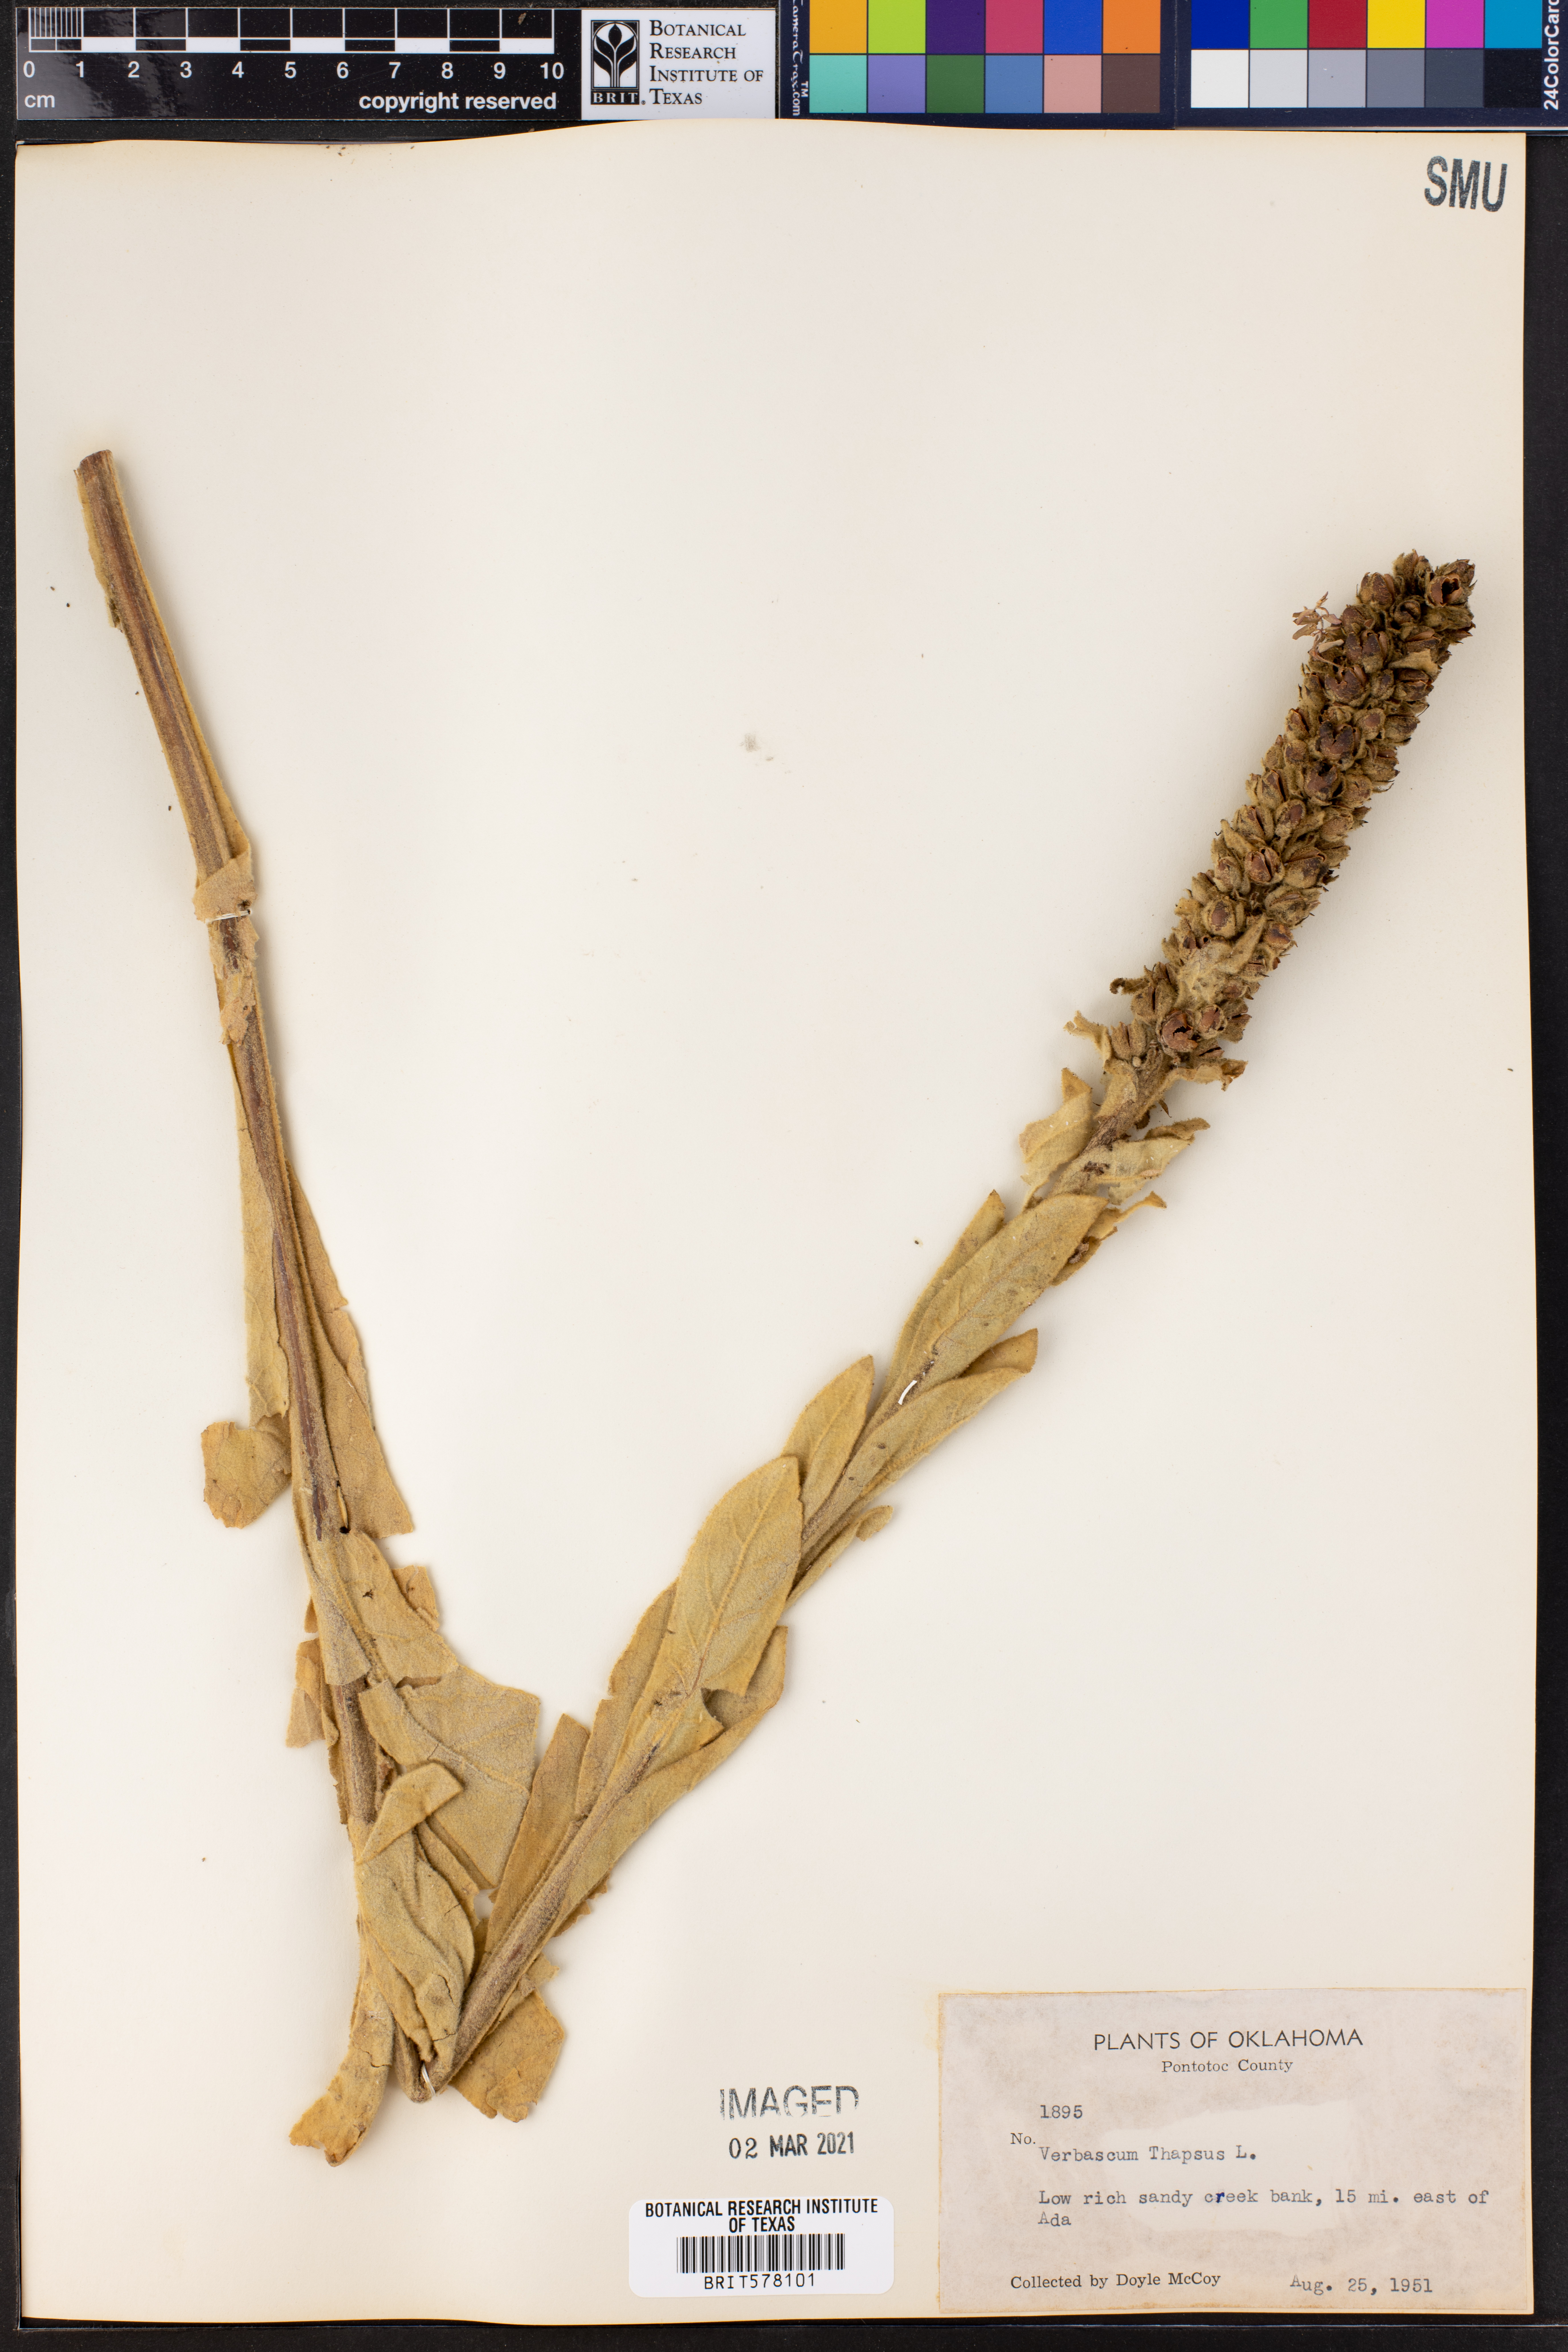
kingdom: Plantae
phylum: Tracheophyta
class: Magnoliopsida
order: Lamiales
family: Scrophulariaceae
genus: Verbascum
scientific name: Verbascum thapsus
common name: Common mullein
